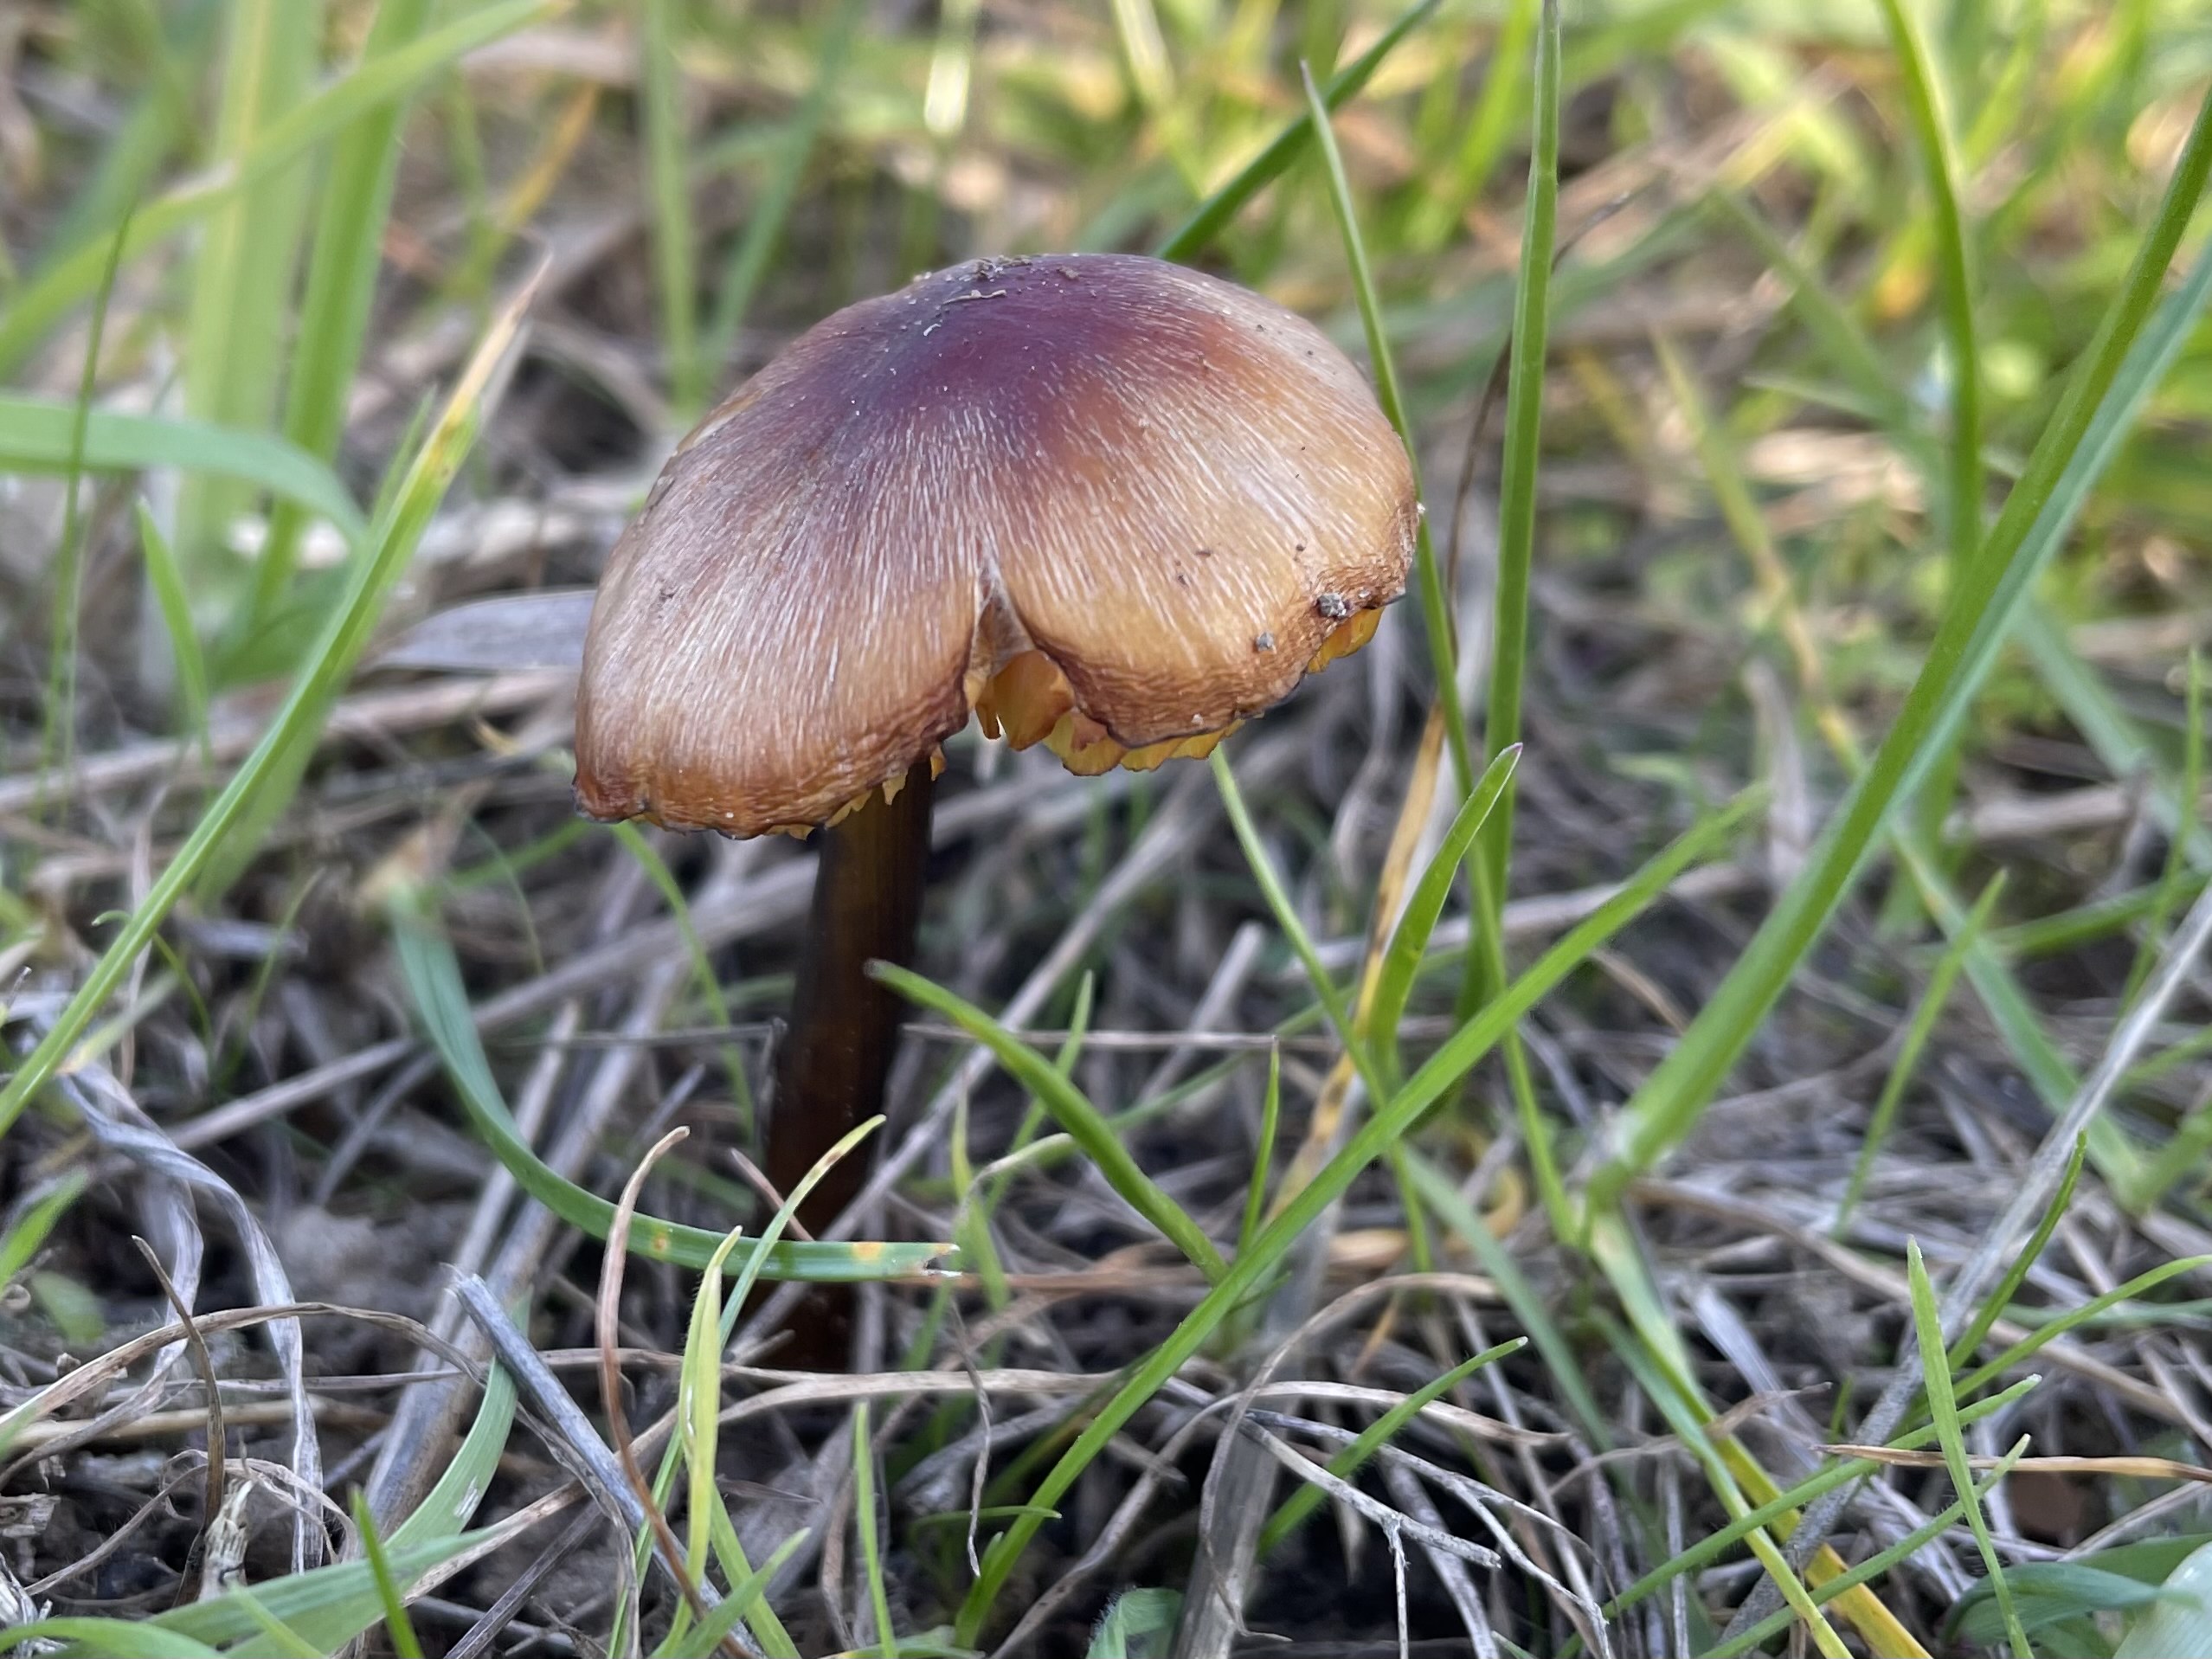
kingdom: Fungi
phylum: Basidiomycota
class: Agaricomycetes
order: Agaricales
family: Hygrophoraceae
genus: Hygrocybe
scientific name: Hygrocybe conica
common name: kegle-vokshat
